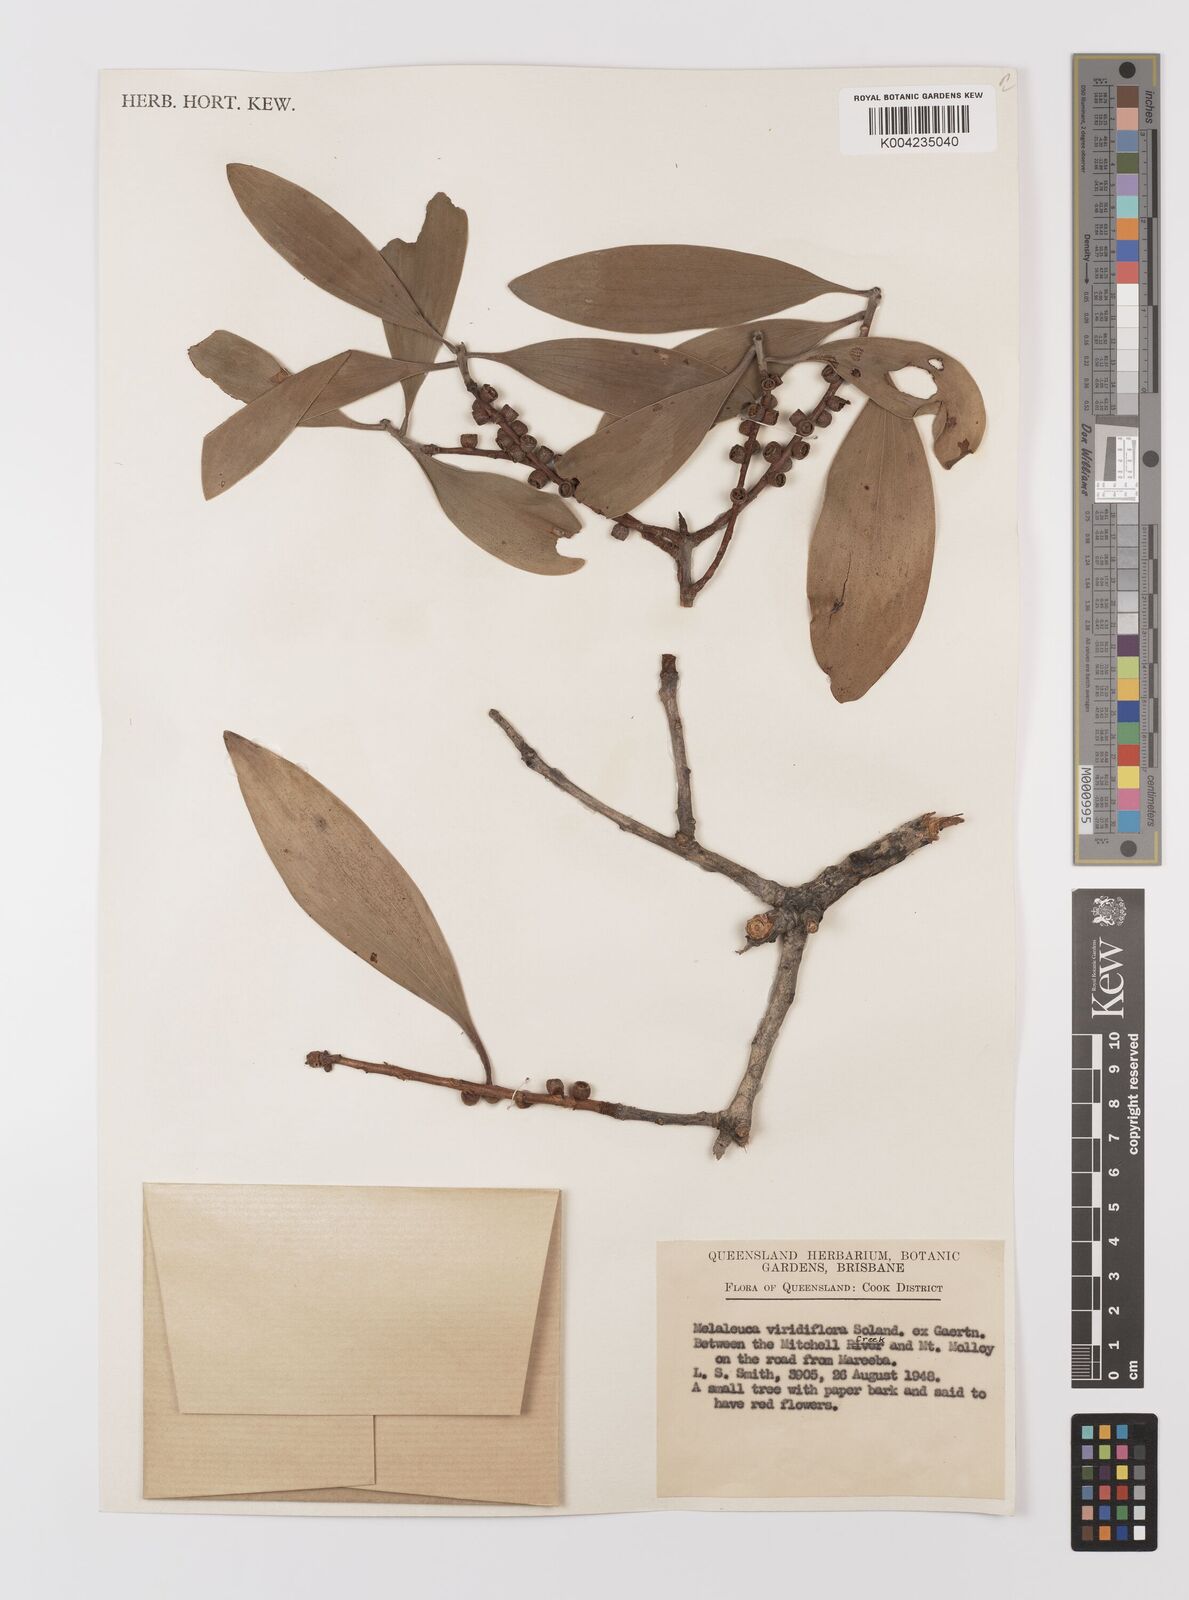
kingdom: Plantae
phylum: Tracheophyta
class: Magnoliopsida
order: Myrtales
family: Myrtaceae
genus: Melaleuca
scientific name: Melaleuca viridiflora
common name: Brown-leaved paperbark
